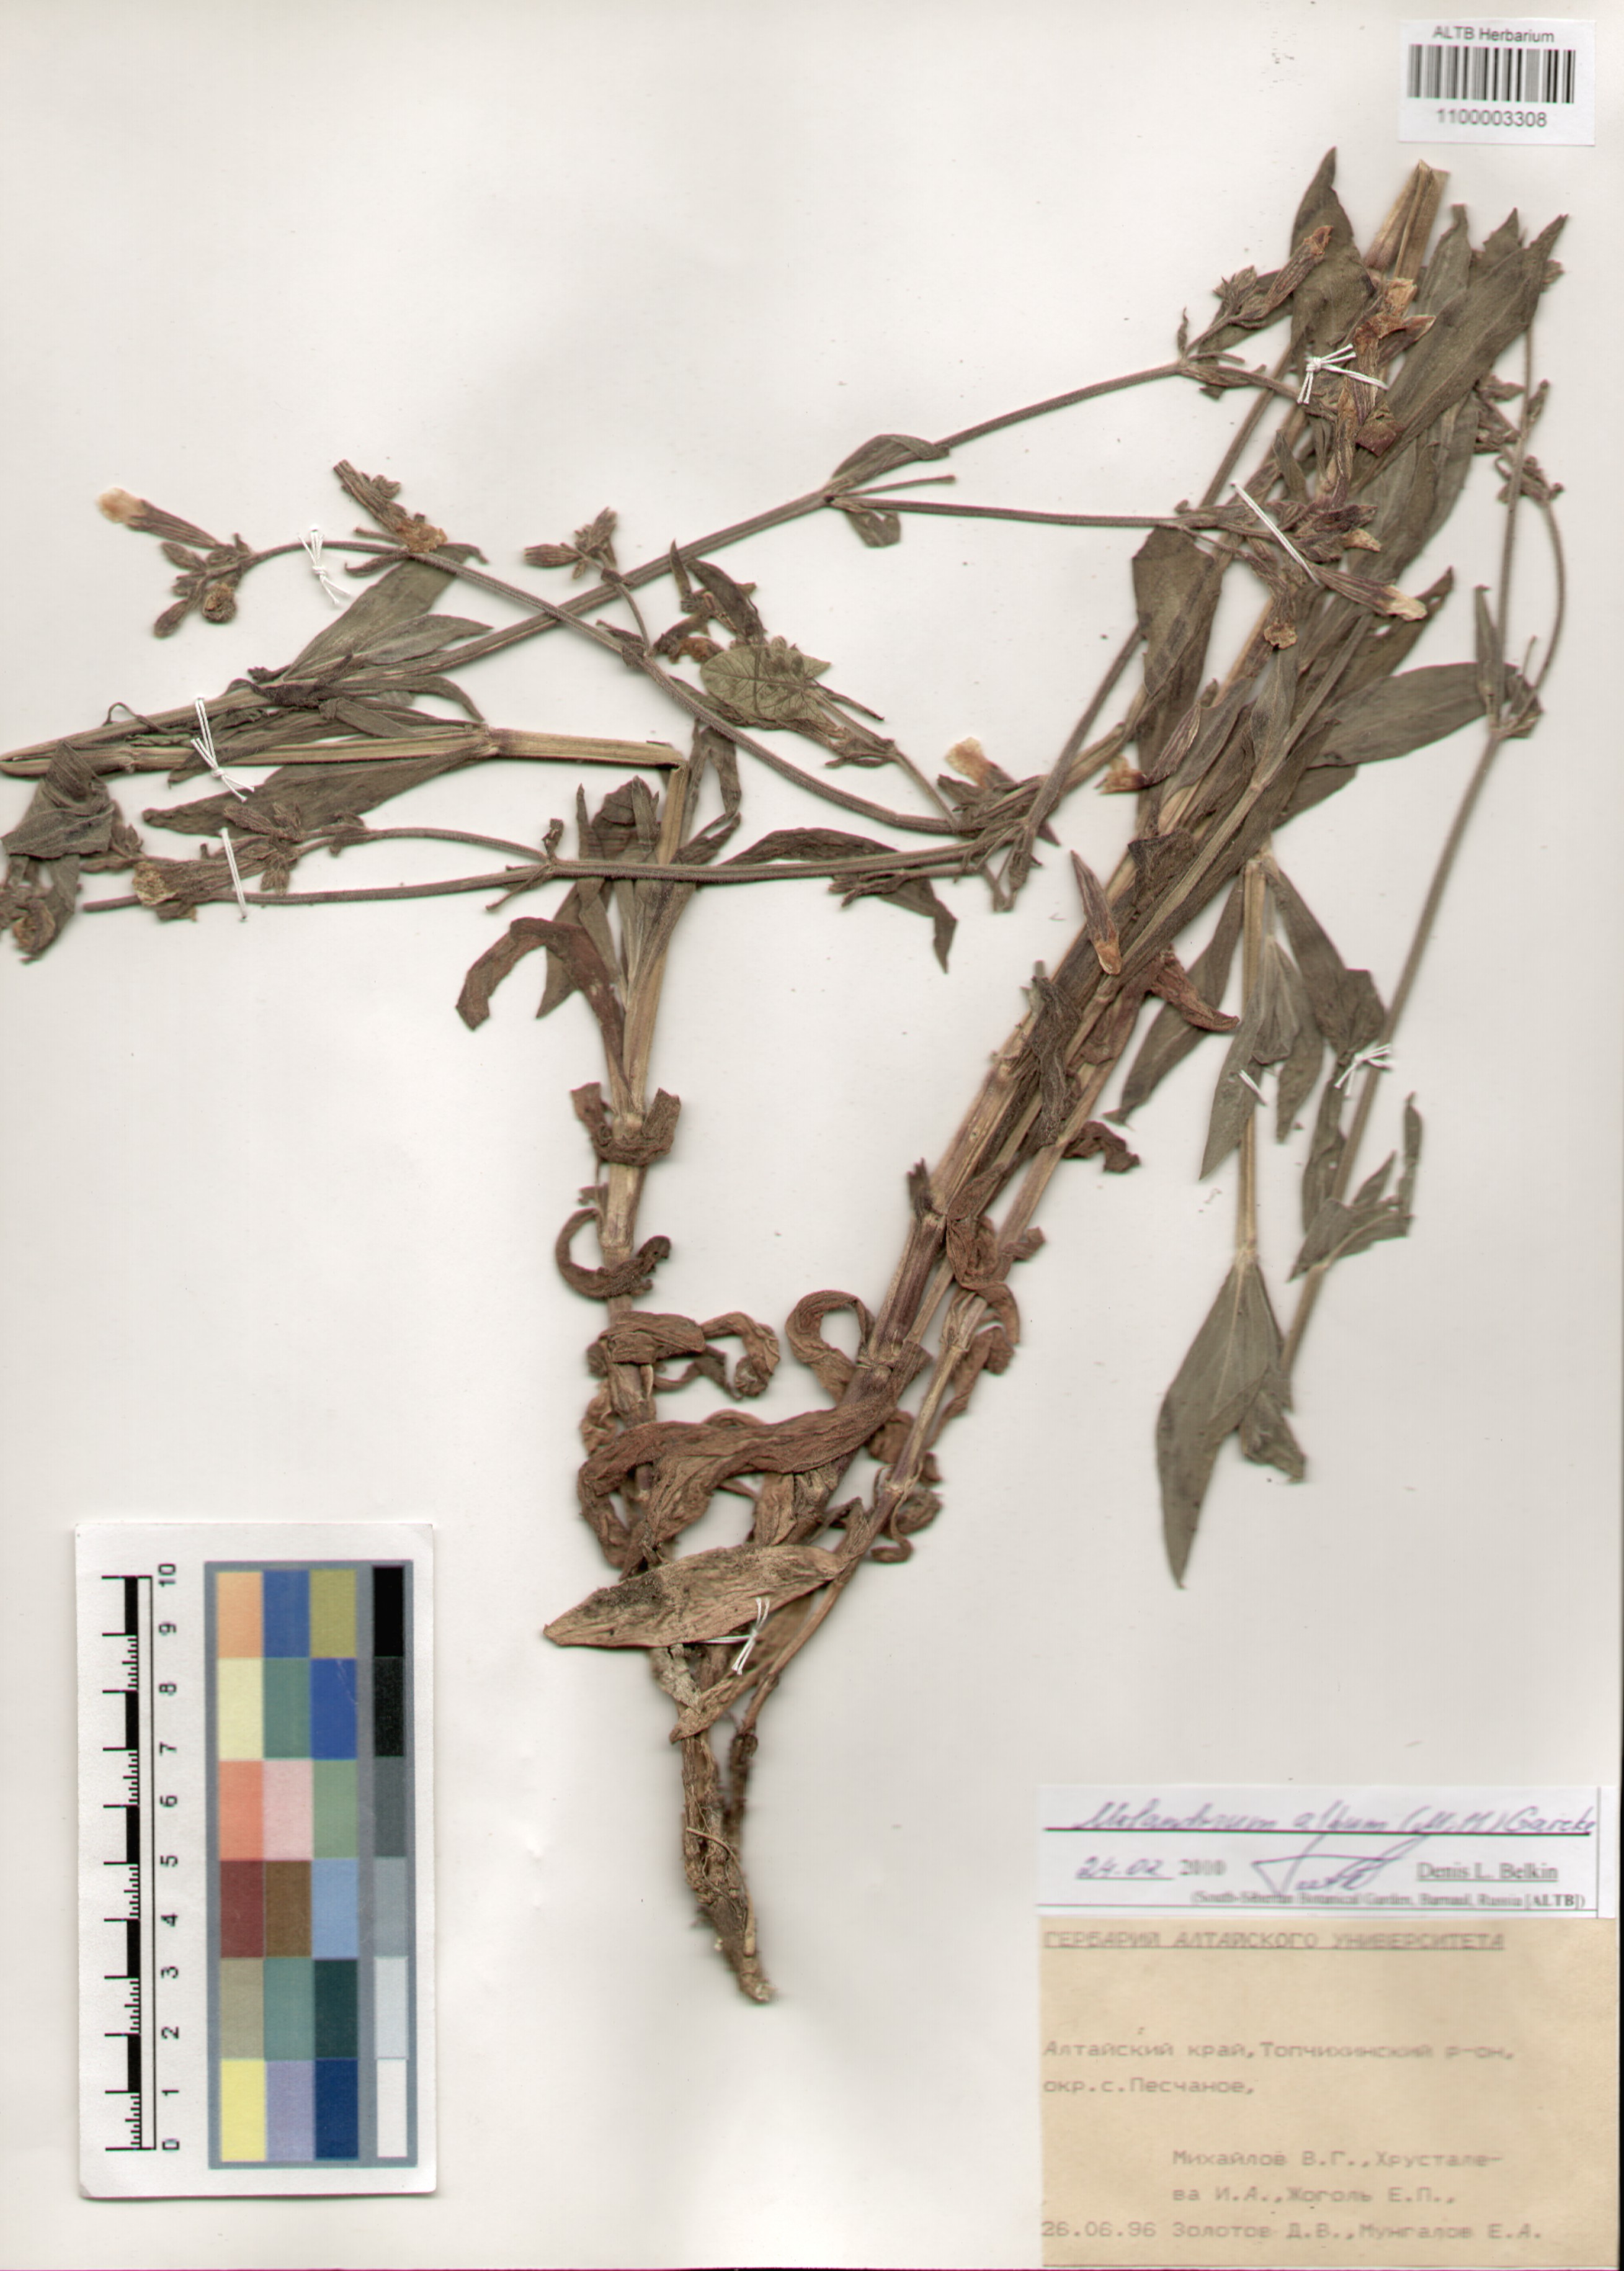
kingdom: Plantae
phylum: Tracheophyta
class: Magnoliopsida
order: Caryophyllales
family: Caryophyllaceae
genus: Silene
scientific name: Silene latifolia
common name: White campion
